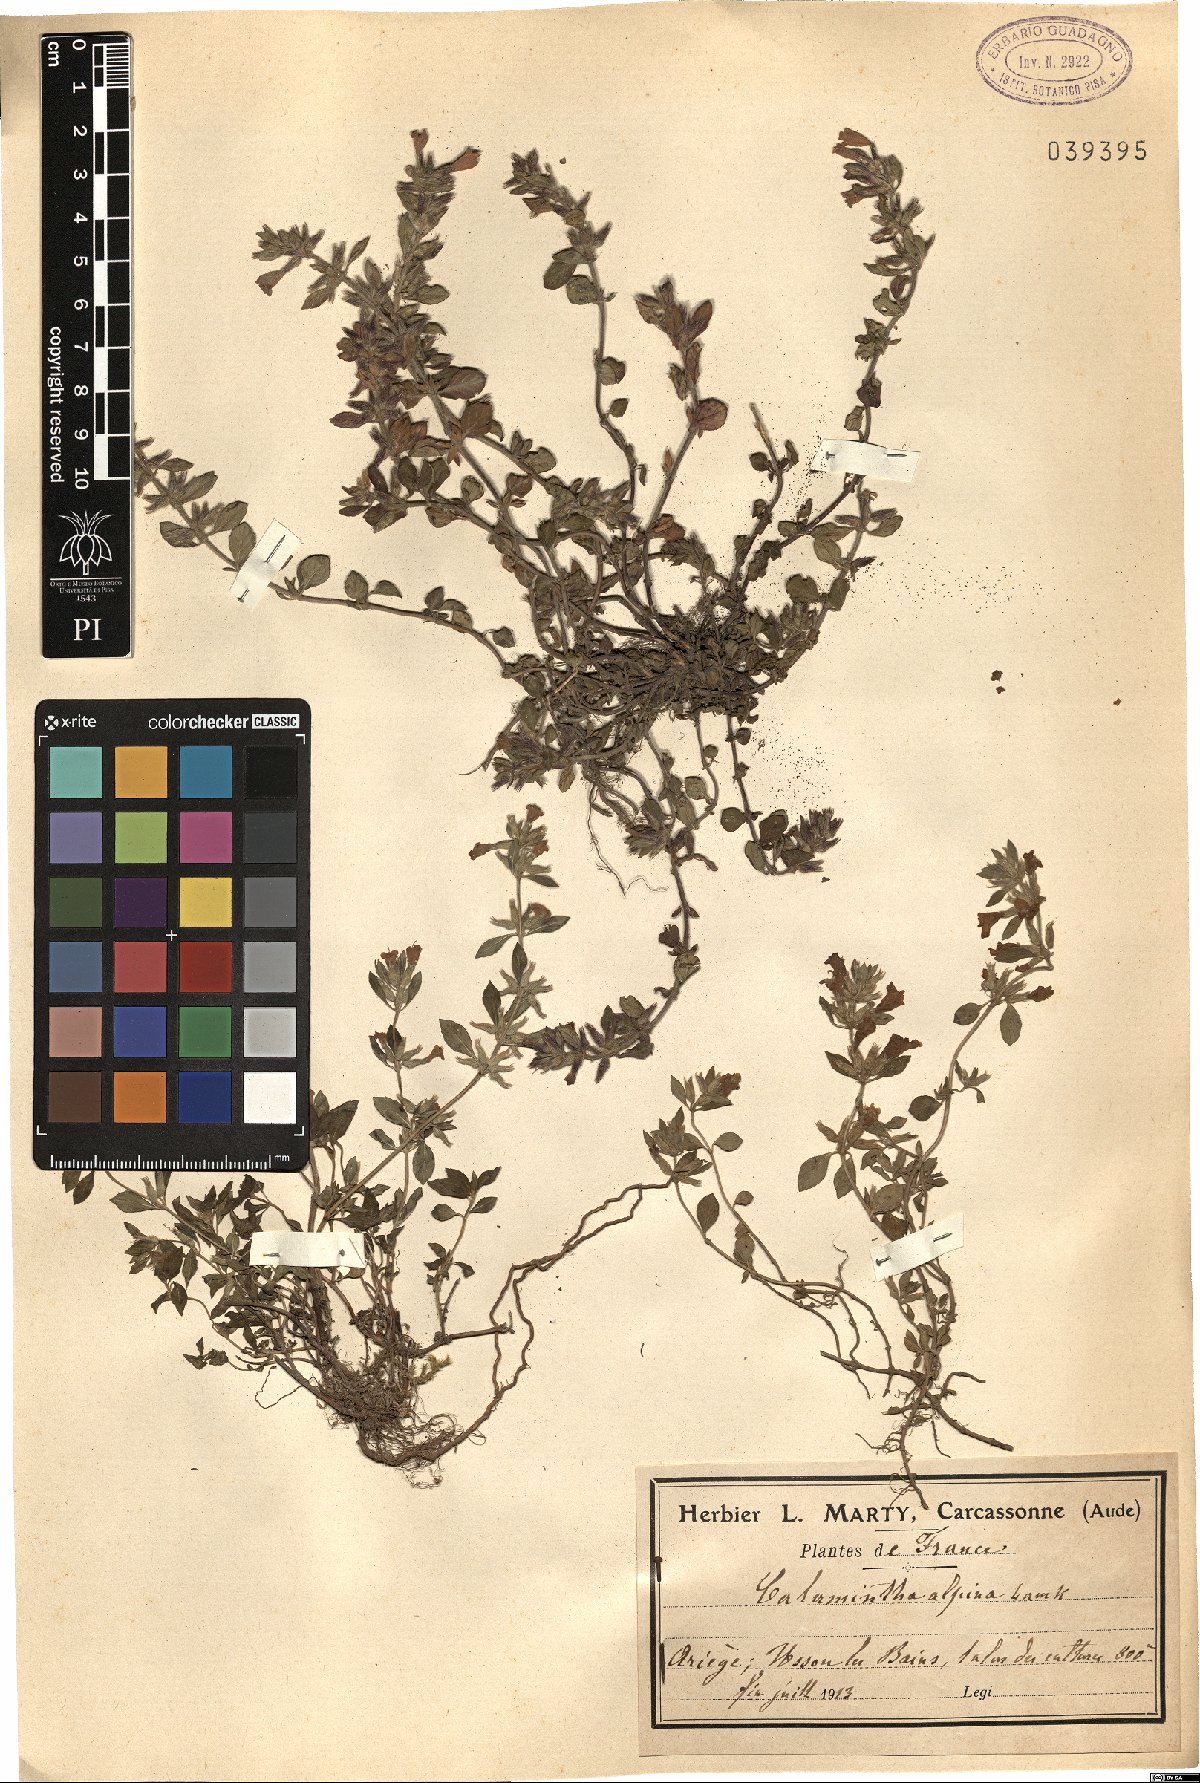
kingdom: Plantae
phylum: Tracheophyta
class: Magnoliopsida
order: Lamiales
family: Lamiaceae
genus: Clinopodium
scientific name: Clinopodium alpinum
